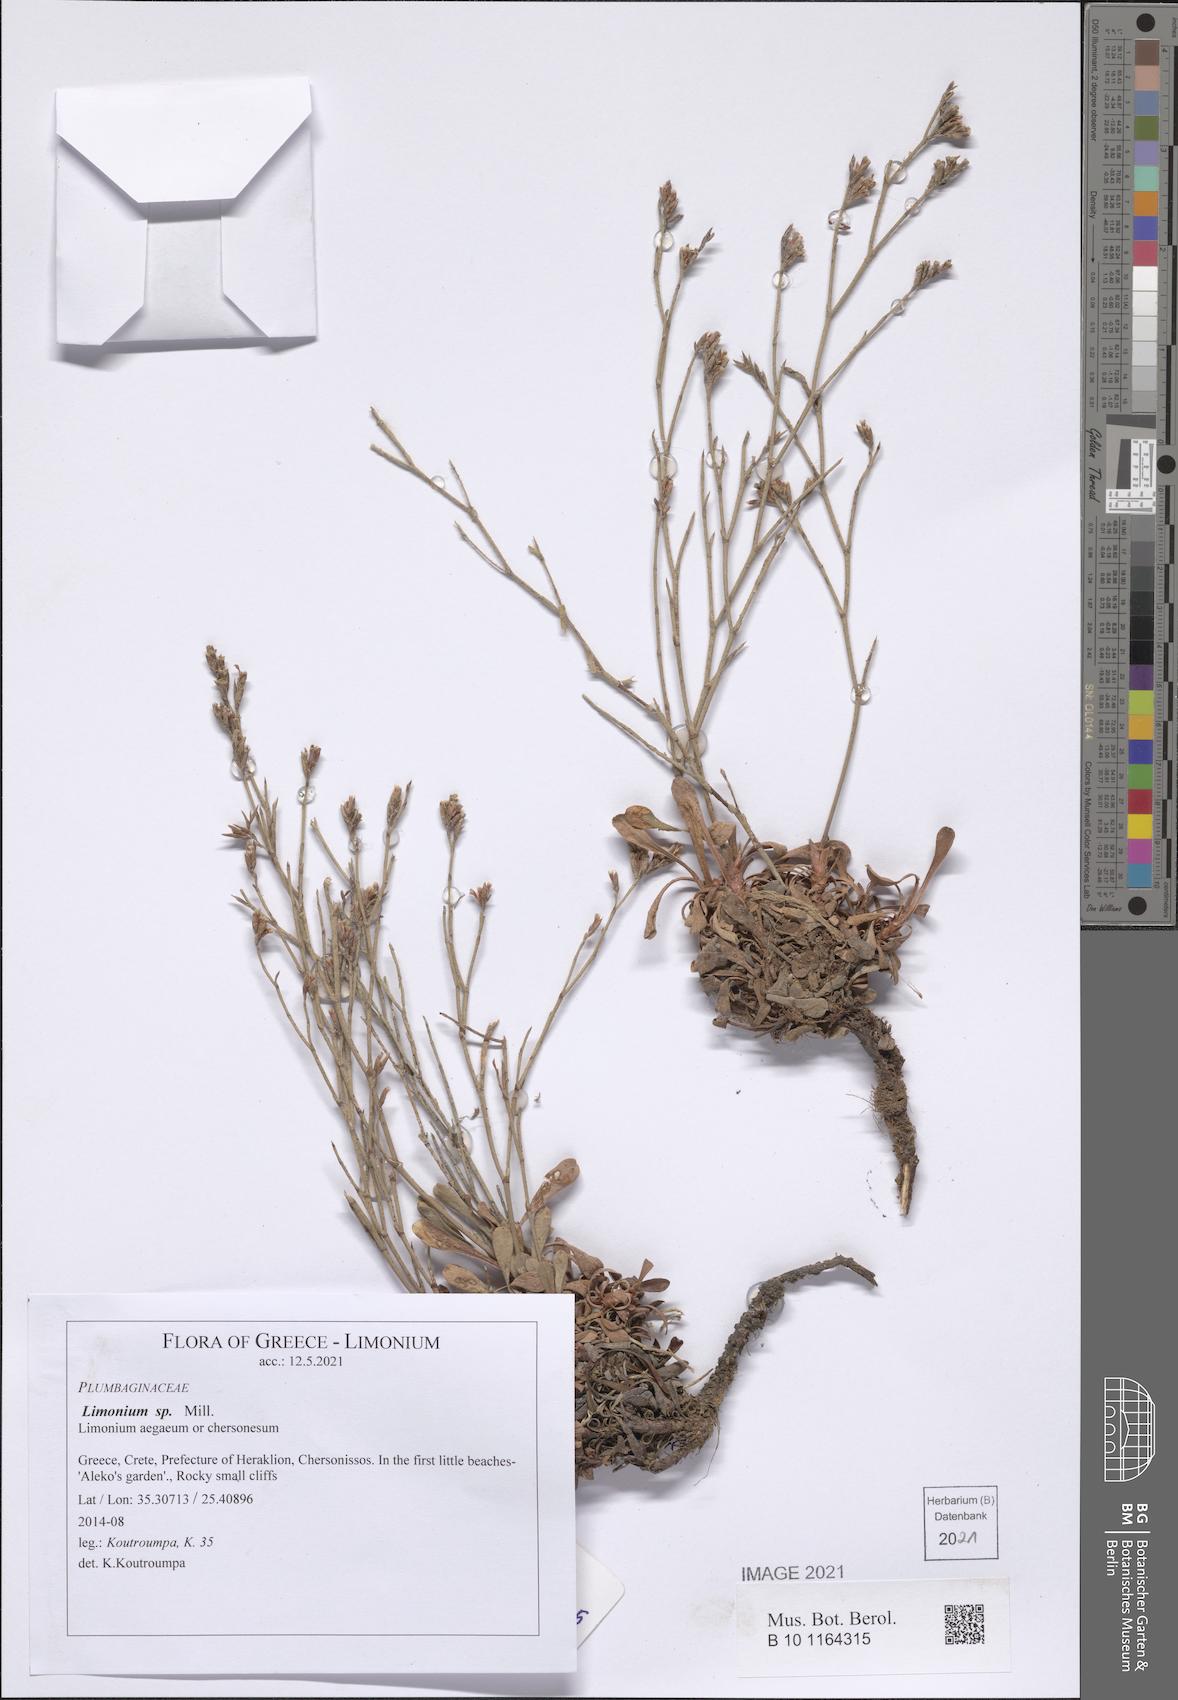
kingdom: Plantae
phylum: Tracheophyta
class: Magnoliopsida
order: Caryophyllales
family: Plumbaginaceae
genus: Limonium
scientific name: Limonium
